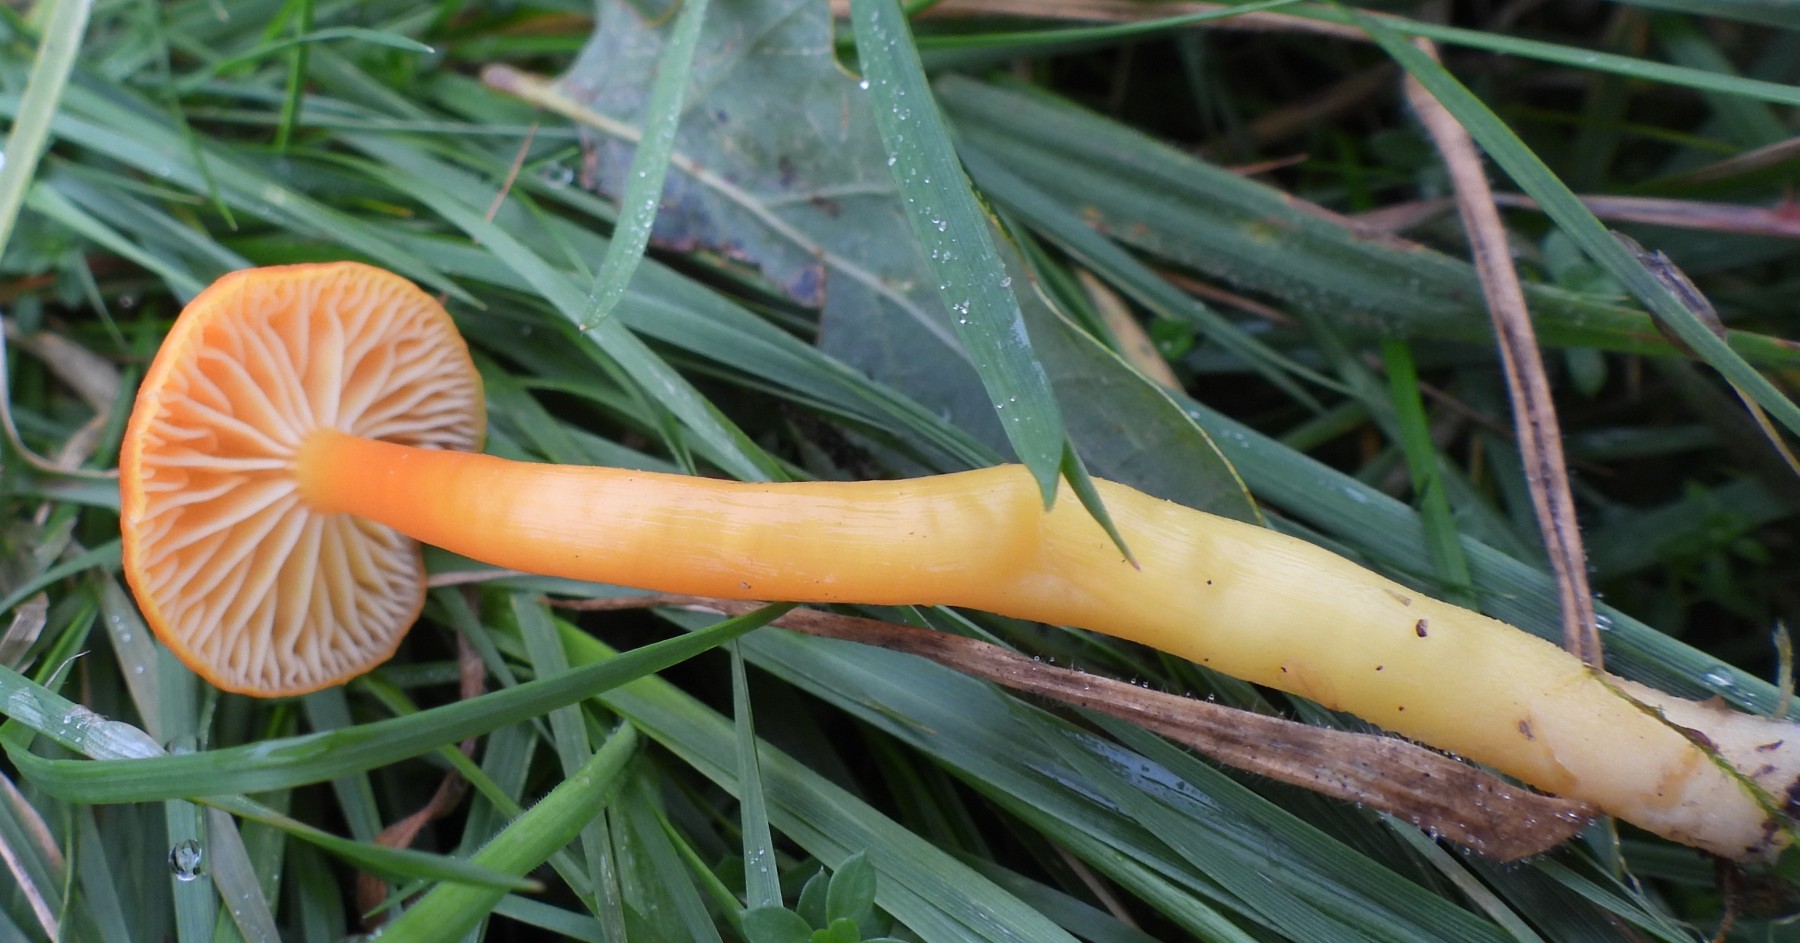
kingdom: Fungi
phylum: Basidiomycota
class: Agaricomycetes
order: Agaricales
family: Hygrophoraceae
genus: Hygrocybe
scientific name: Hygrocybe reidii
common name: honning-vokshat
